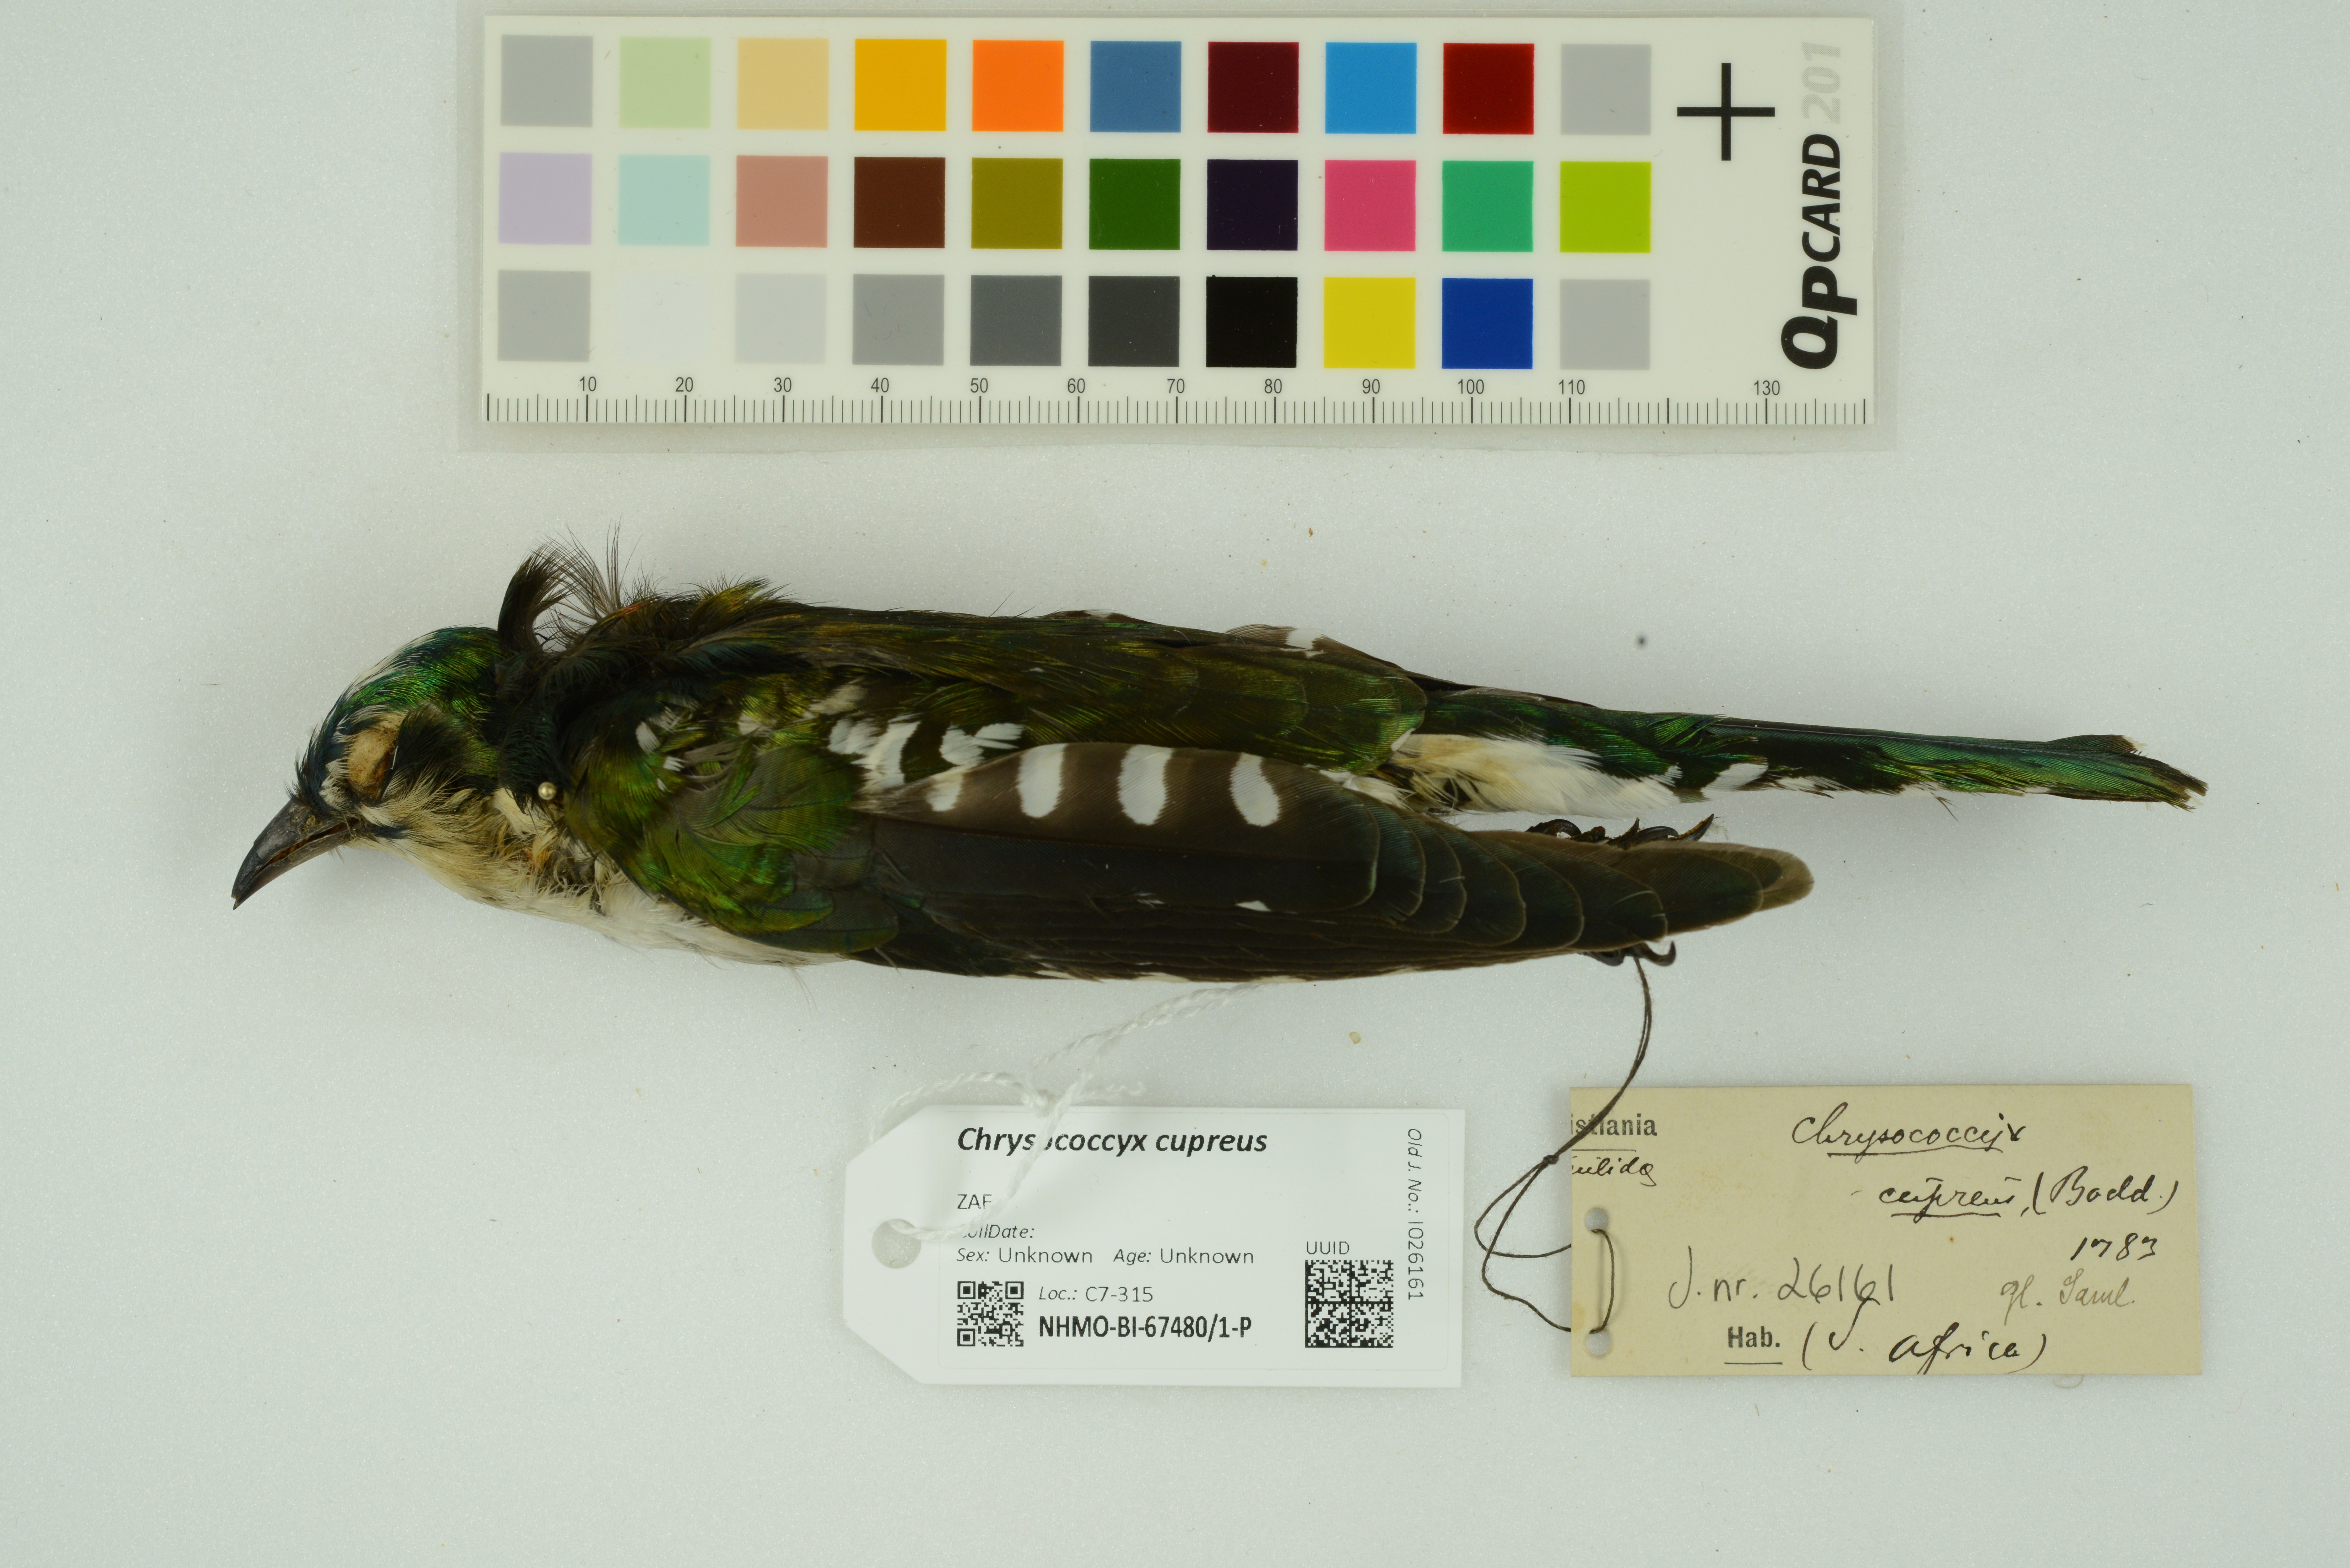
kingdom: Animalia
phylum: Chordata
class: Aves
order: Cuculiformes
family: Cuculidae
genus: Chrysococcyx
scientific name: Chrysococcyx cupreus
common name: African emerald cuckoo
